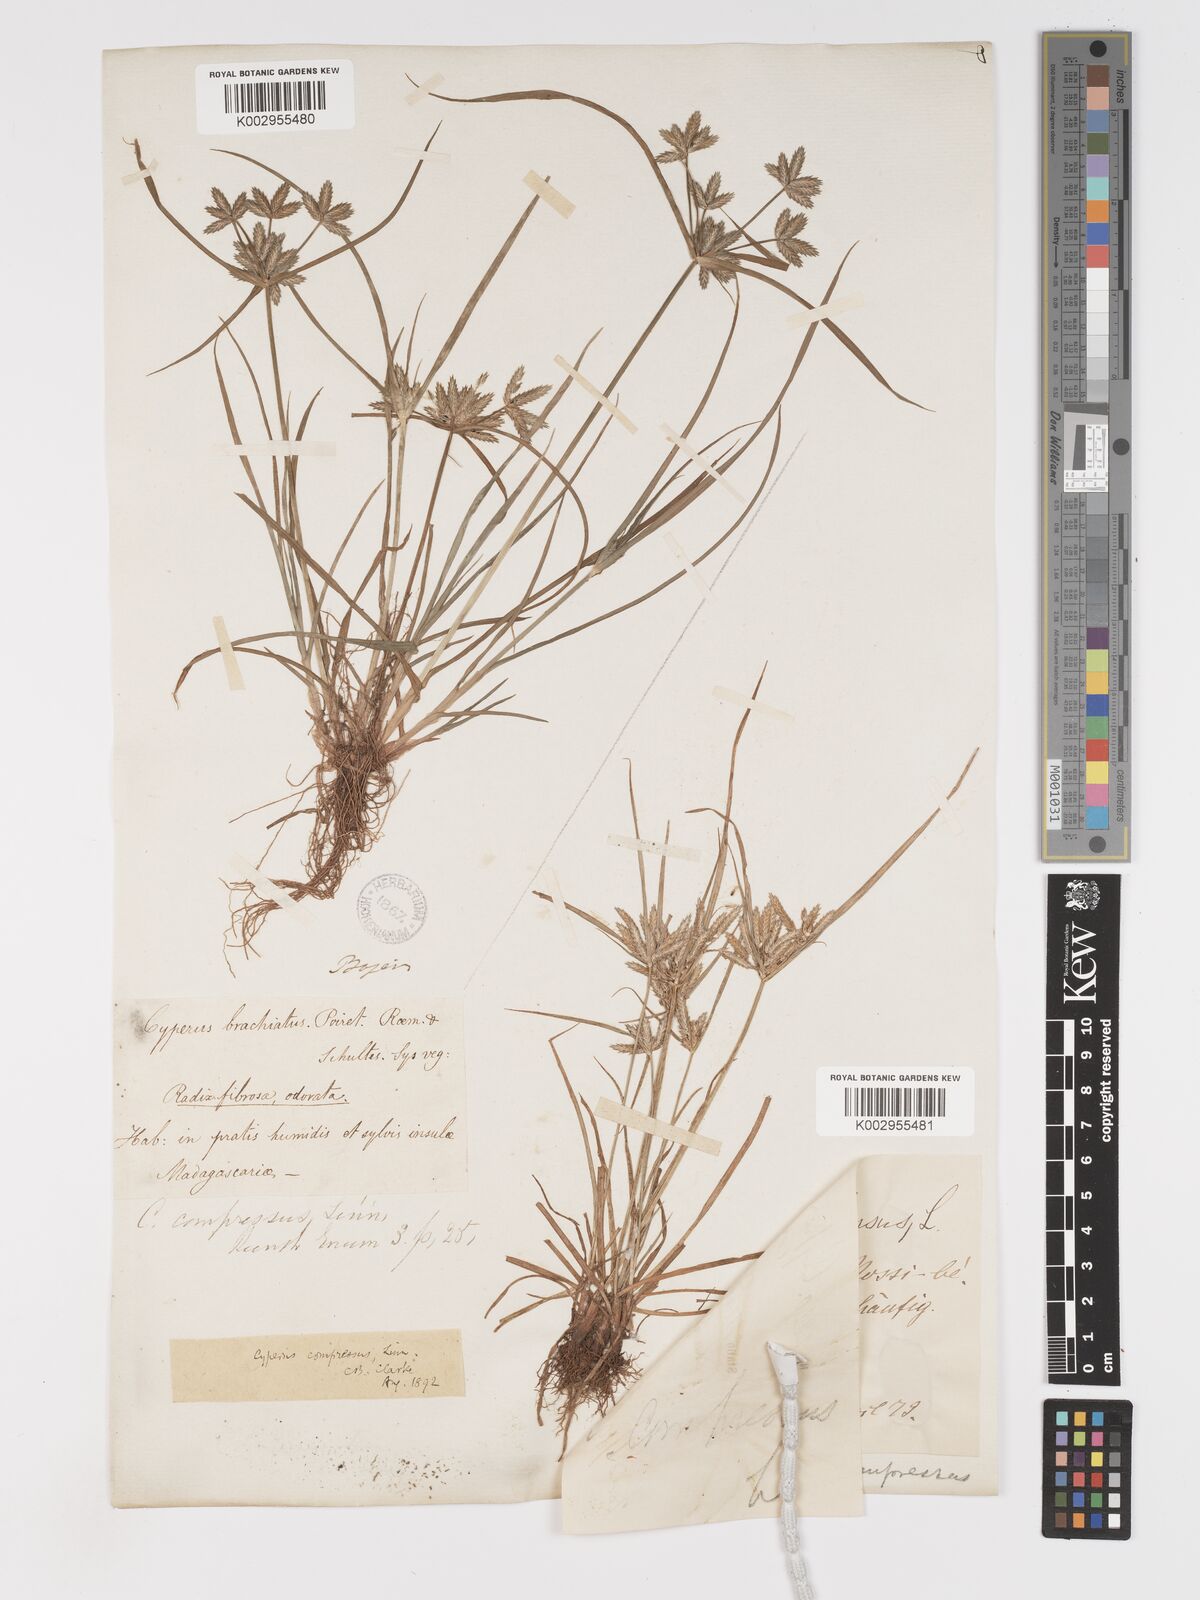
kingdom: Plantae
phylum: Tracheophyta
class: Liliopsida
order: Poales
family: Cyperaceae
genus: Cyperus
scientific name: Cyperus compressus
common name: Poorland flatsedge
